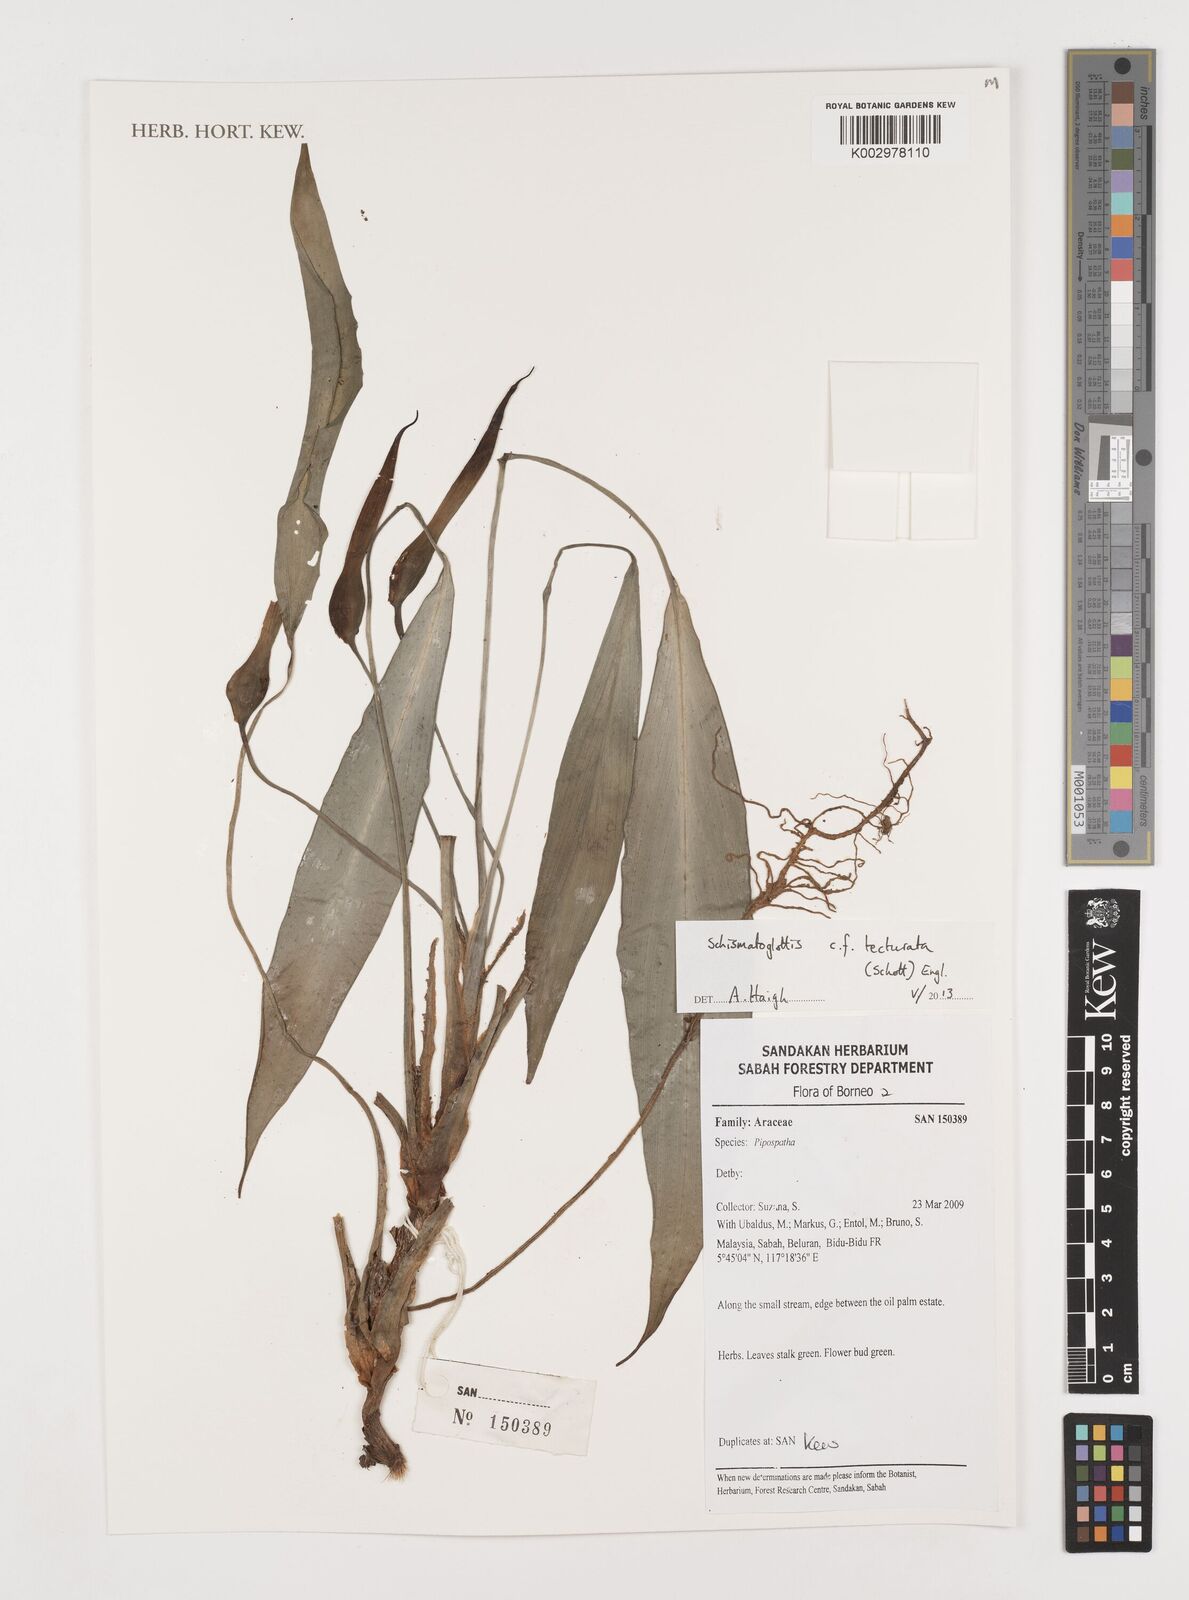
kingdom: Plantae
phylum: Tracheophyta
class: Liliopsida
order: Zingiberales
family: Costaceae
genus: Colobogynium
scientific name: Colobogynium variegatum
